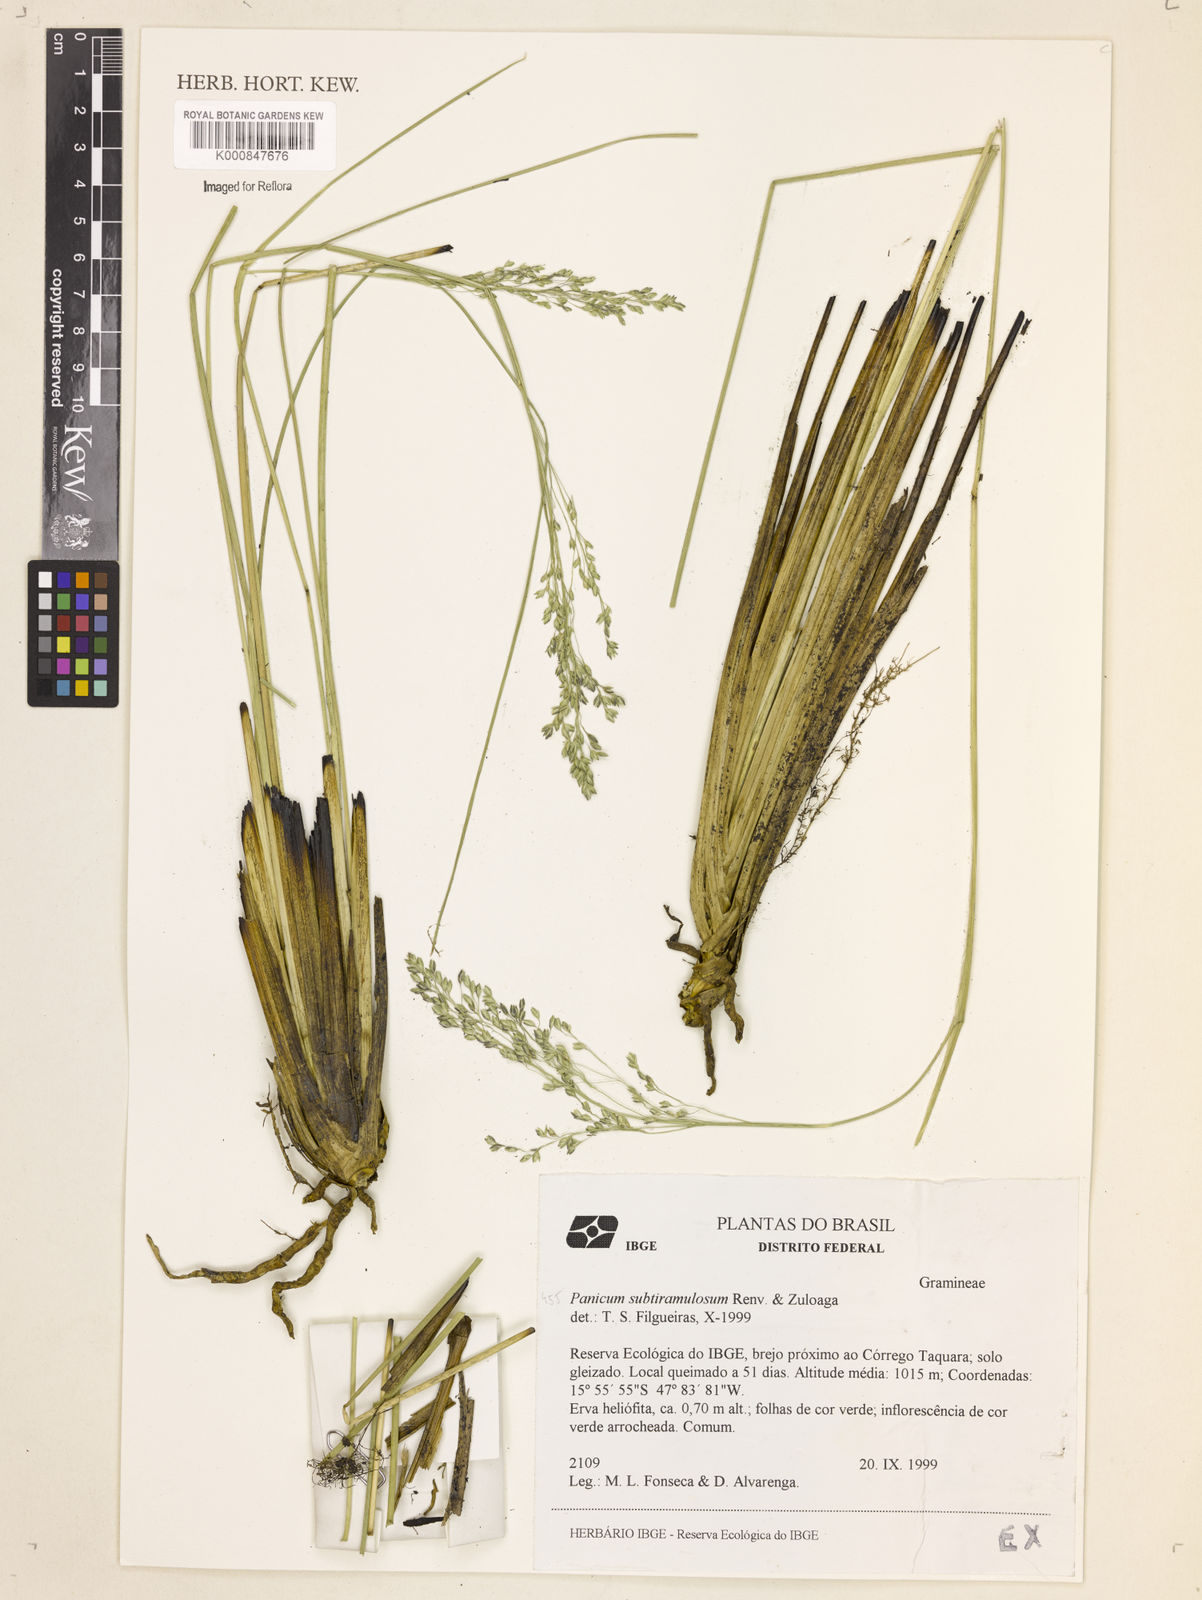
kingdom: Plantae
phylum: Tracheophyta
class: Liliopsida
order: Poales
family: Poaceae
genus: Apochloa
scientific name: Apochloa subtiramulosa
